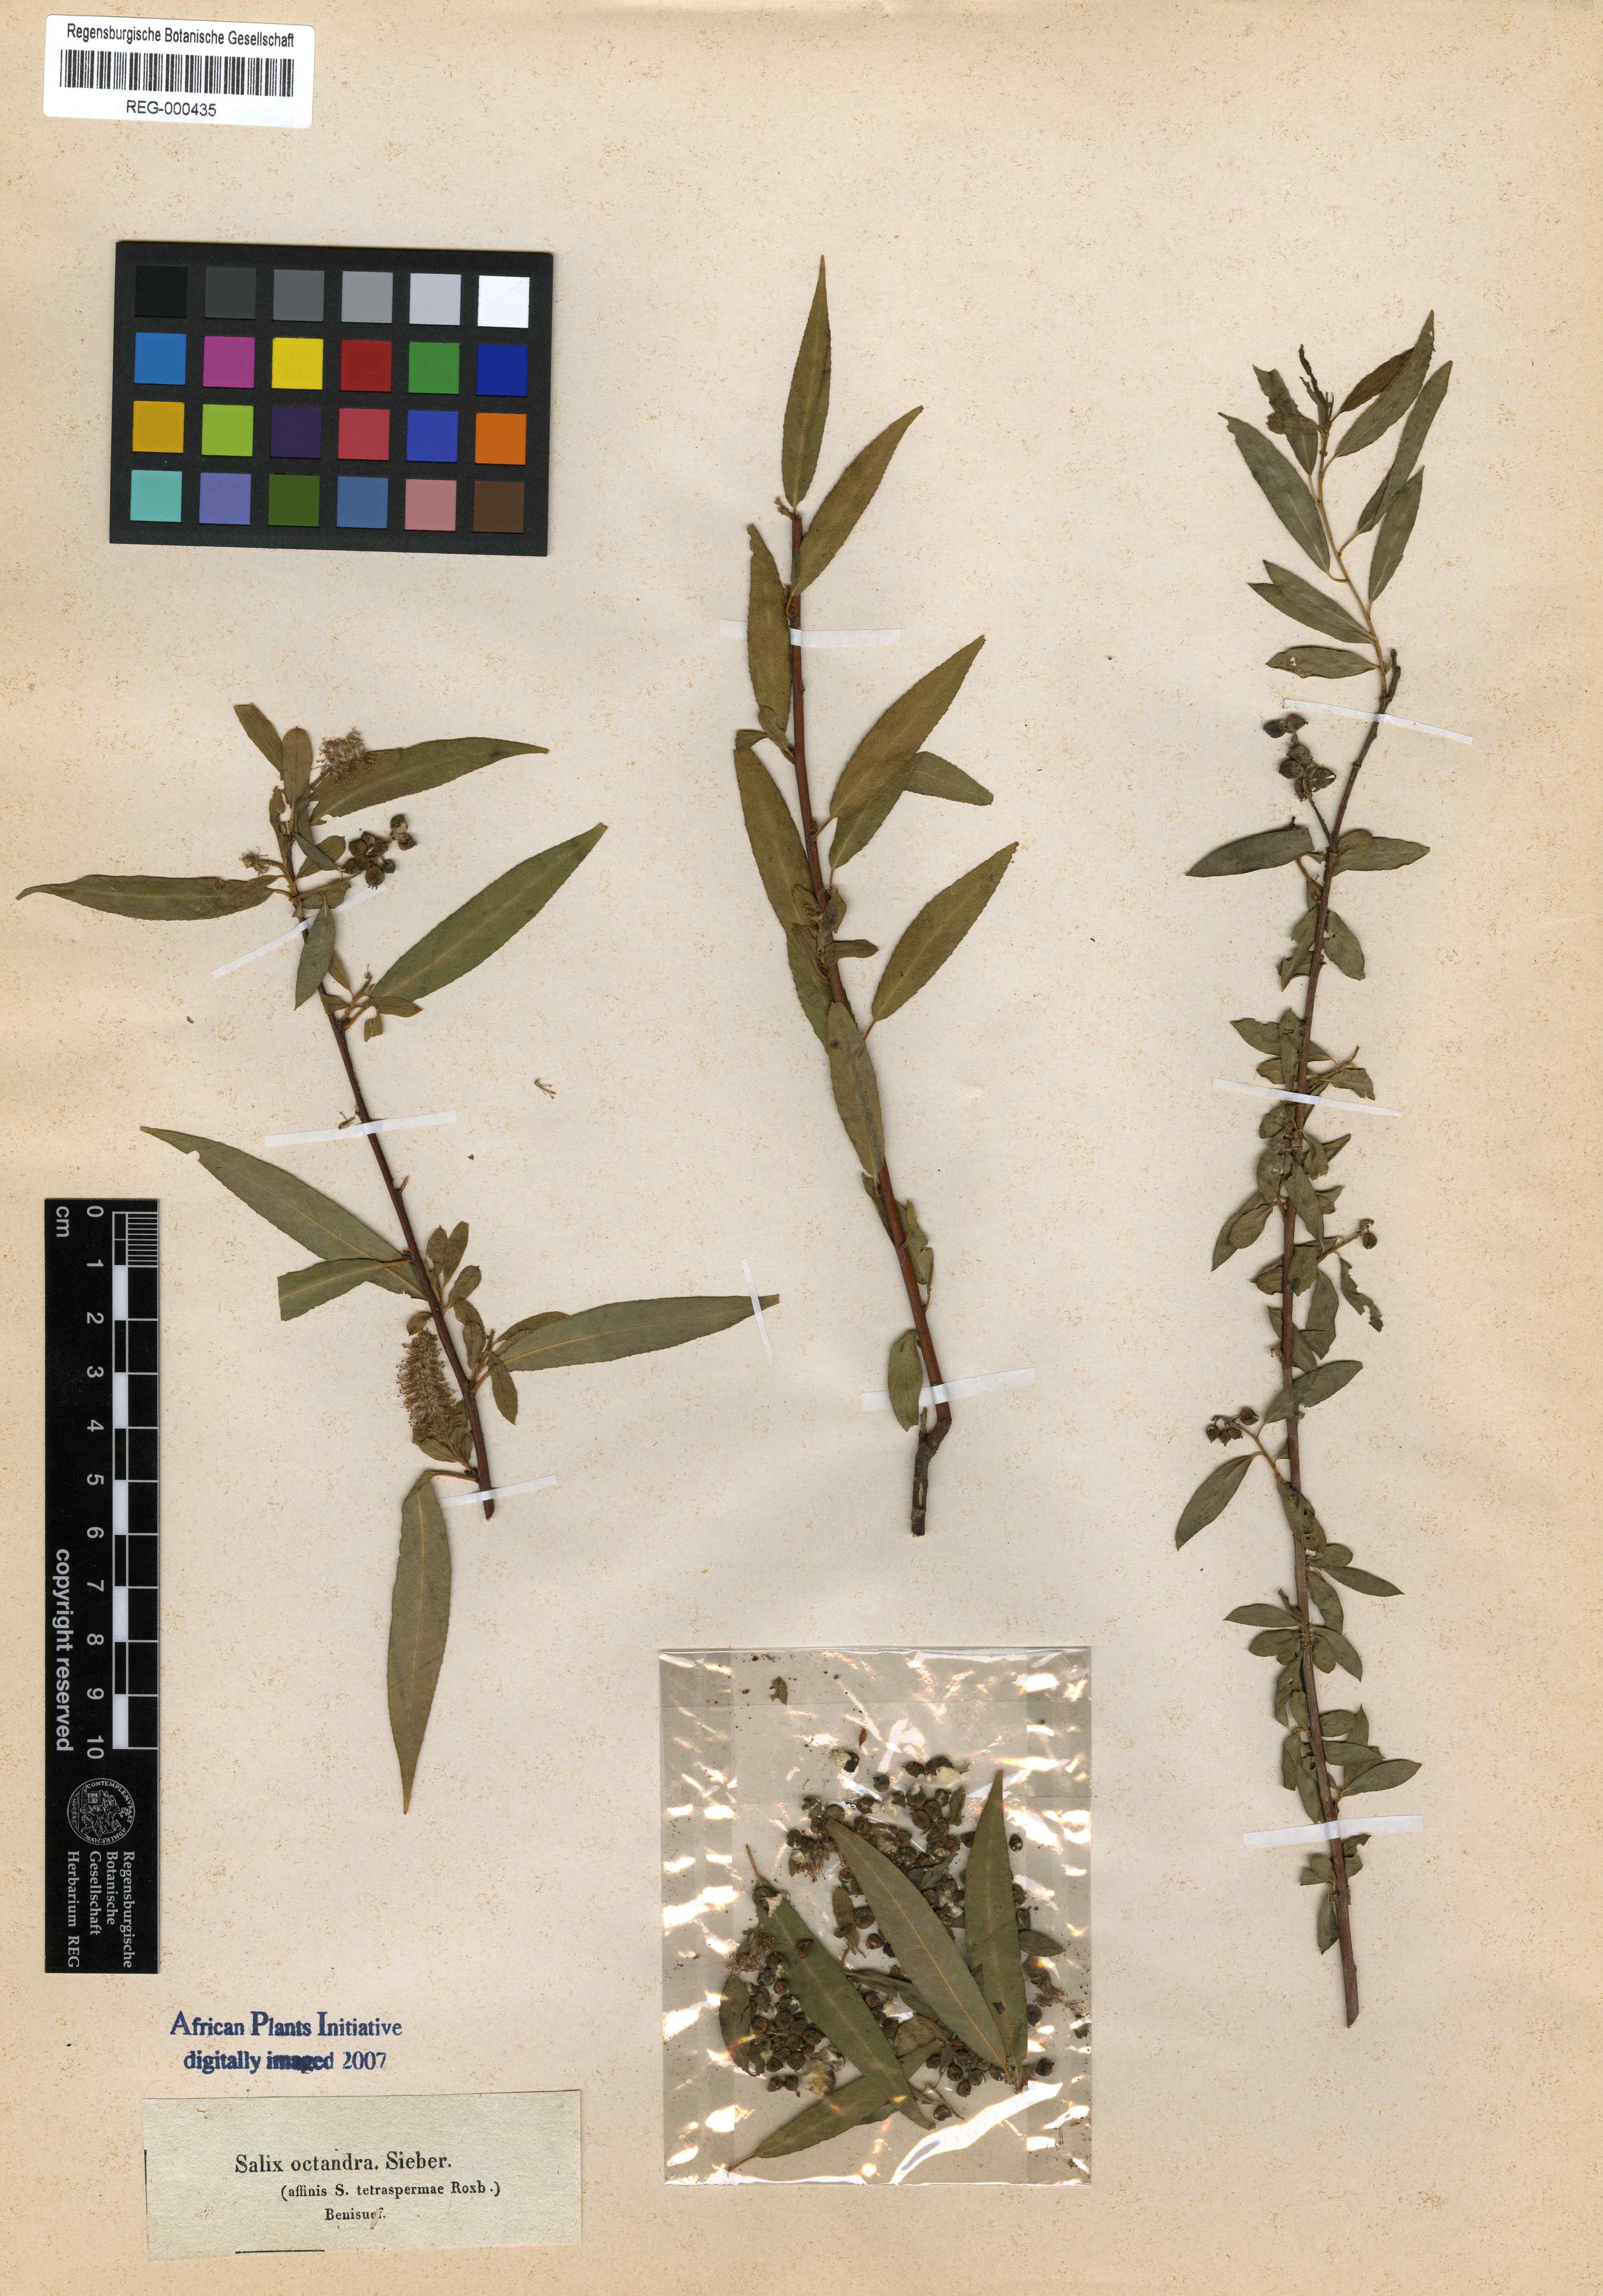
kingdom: Plantae
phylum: Tracheophyta
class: Magnoliopsida
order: Malpighiales
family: Salicaceae
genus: Salix
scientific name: Salix mucronata
